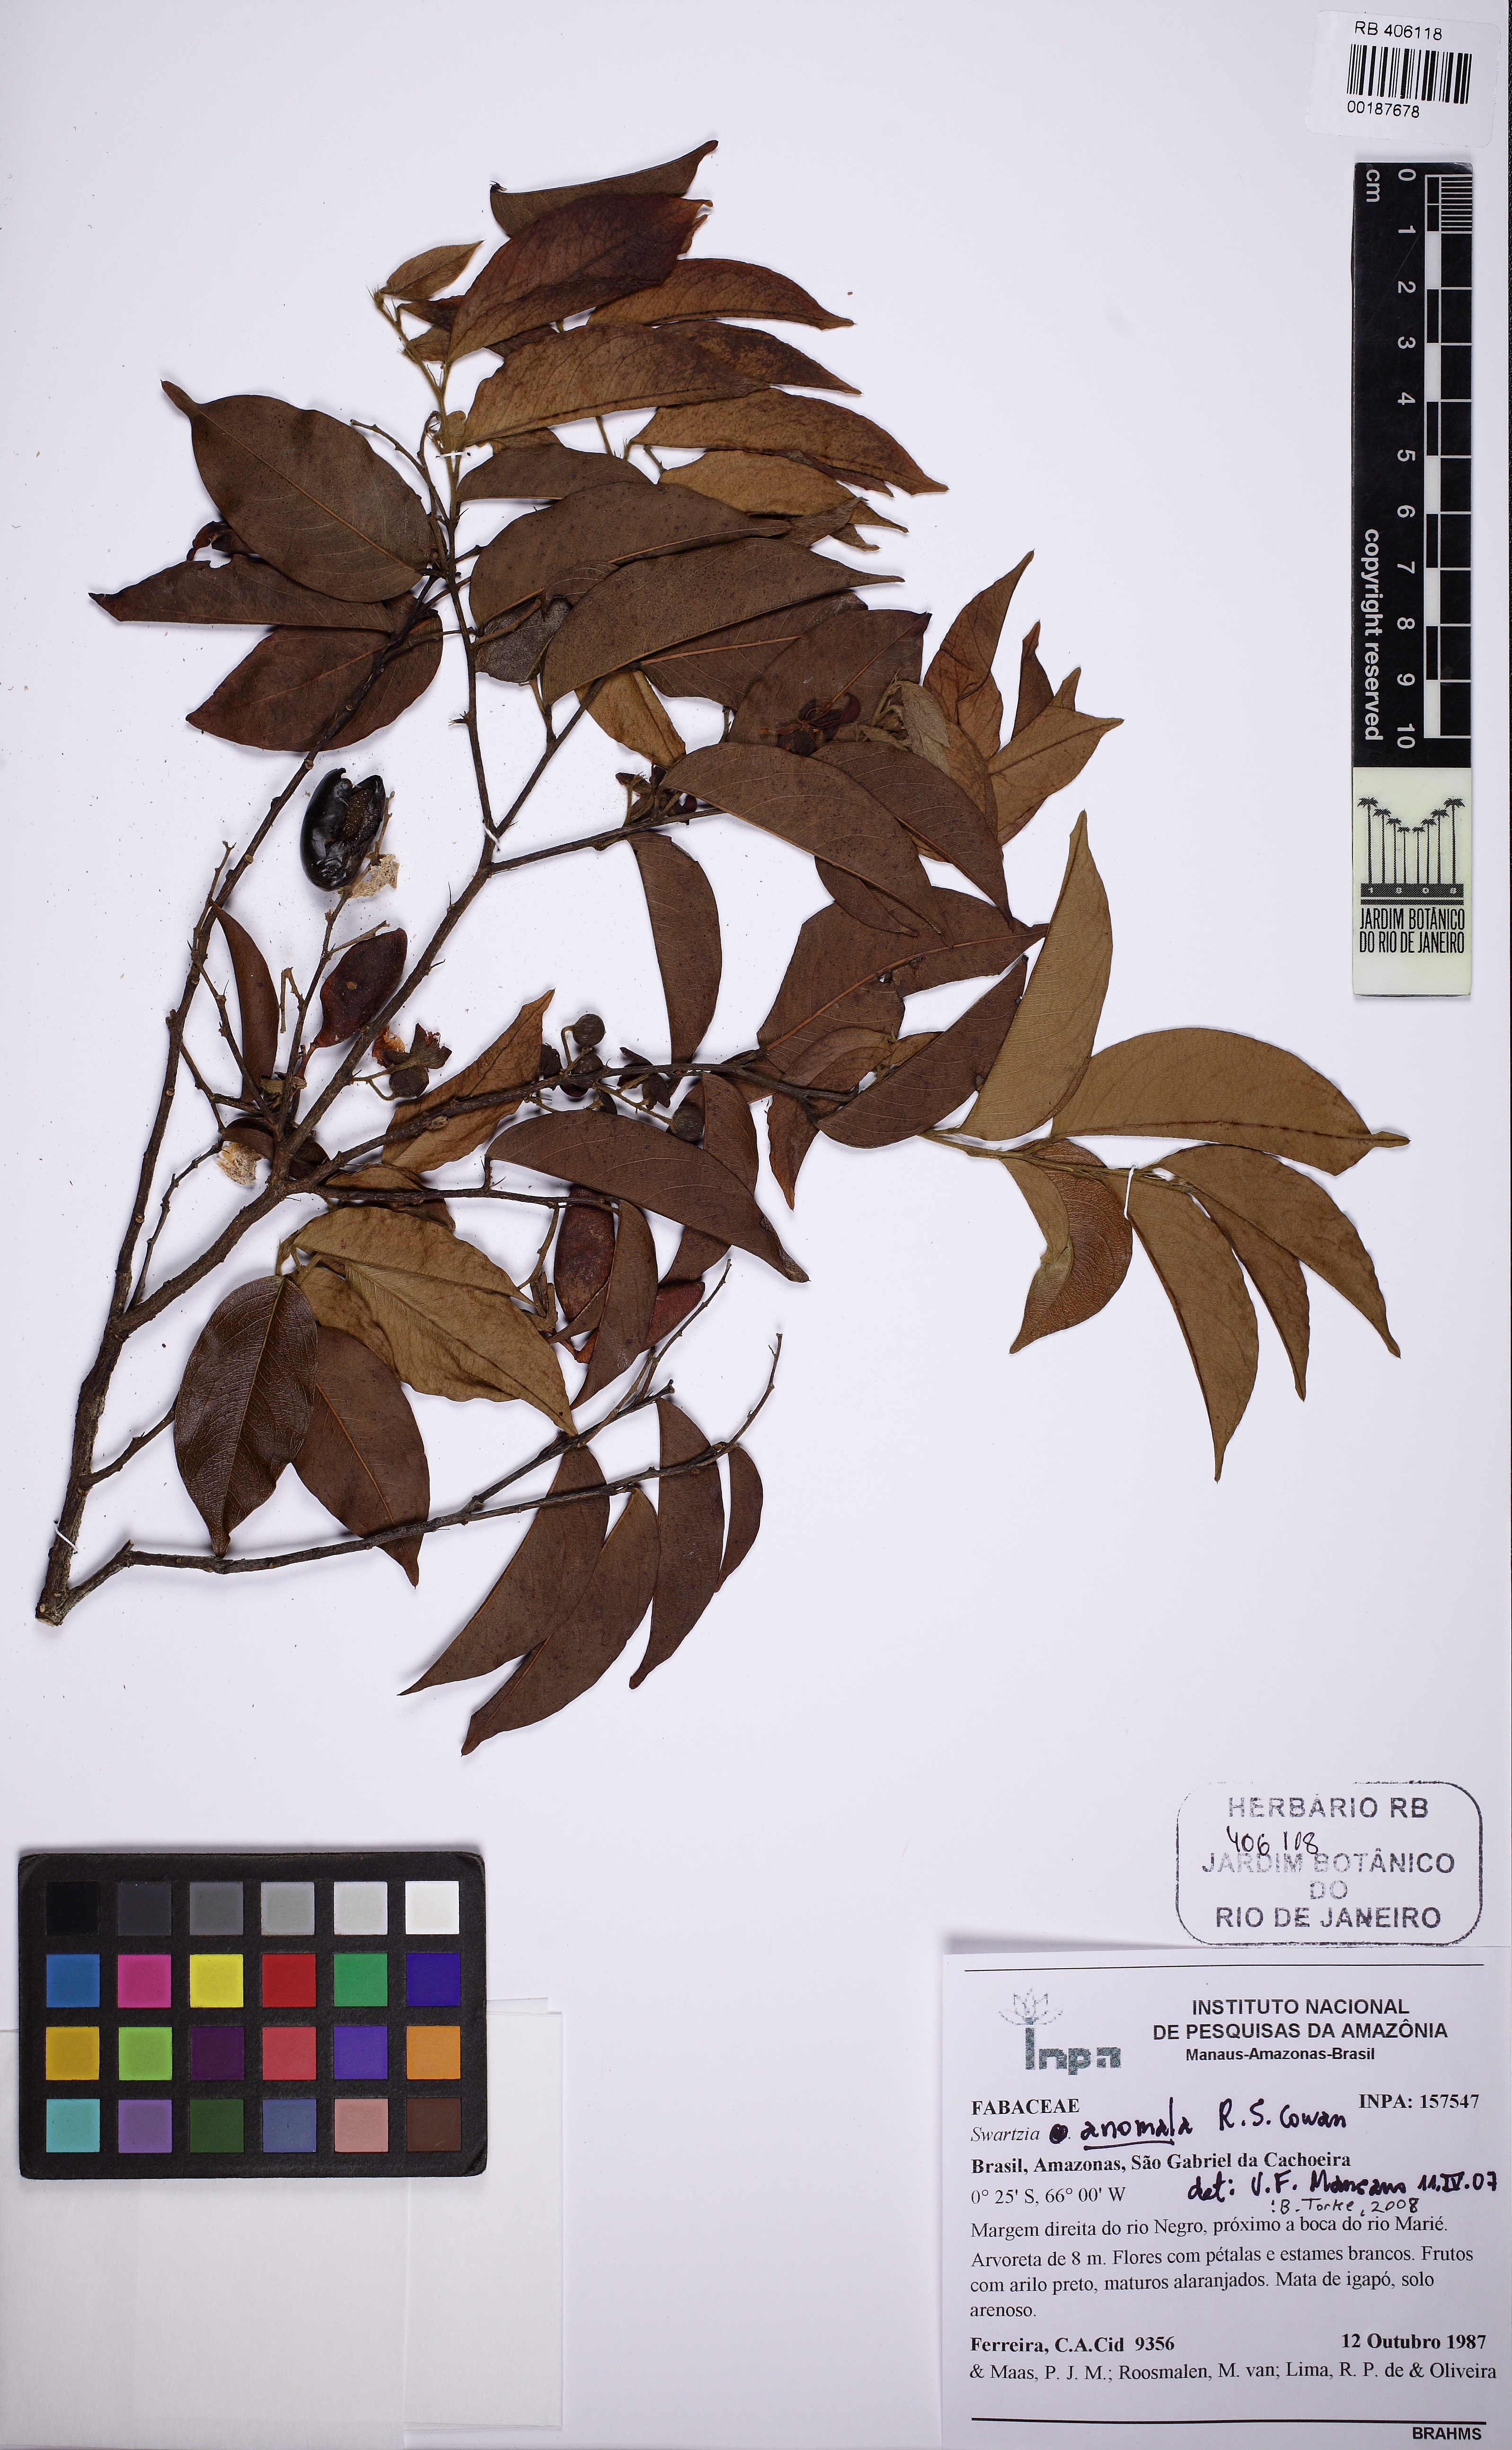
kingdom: Plantae
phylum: Tracheophyta
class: Magnoliopsida
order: Fabales
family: Fabaceae
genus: Swartzia
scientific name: Swartzia anomala
